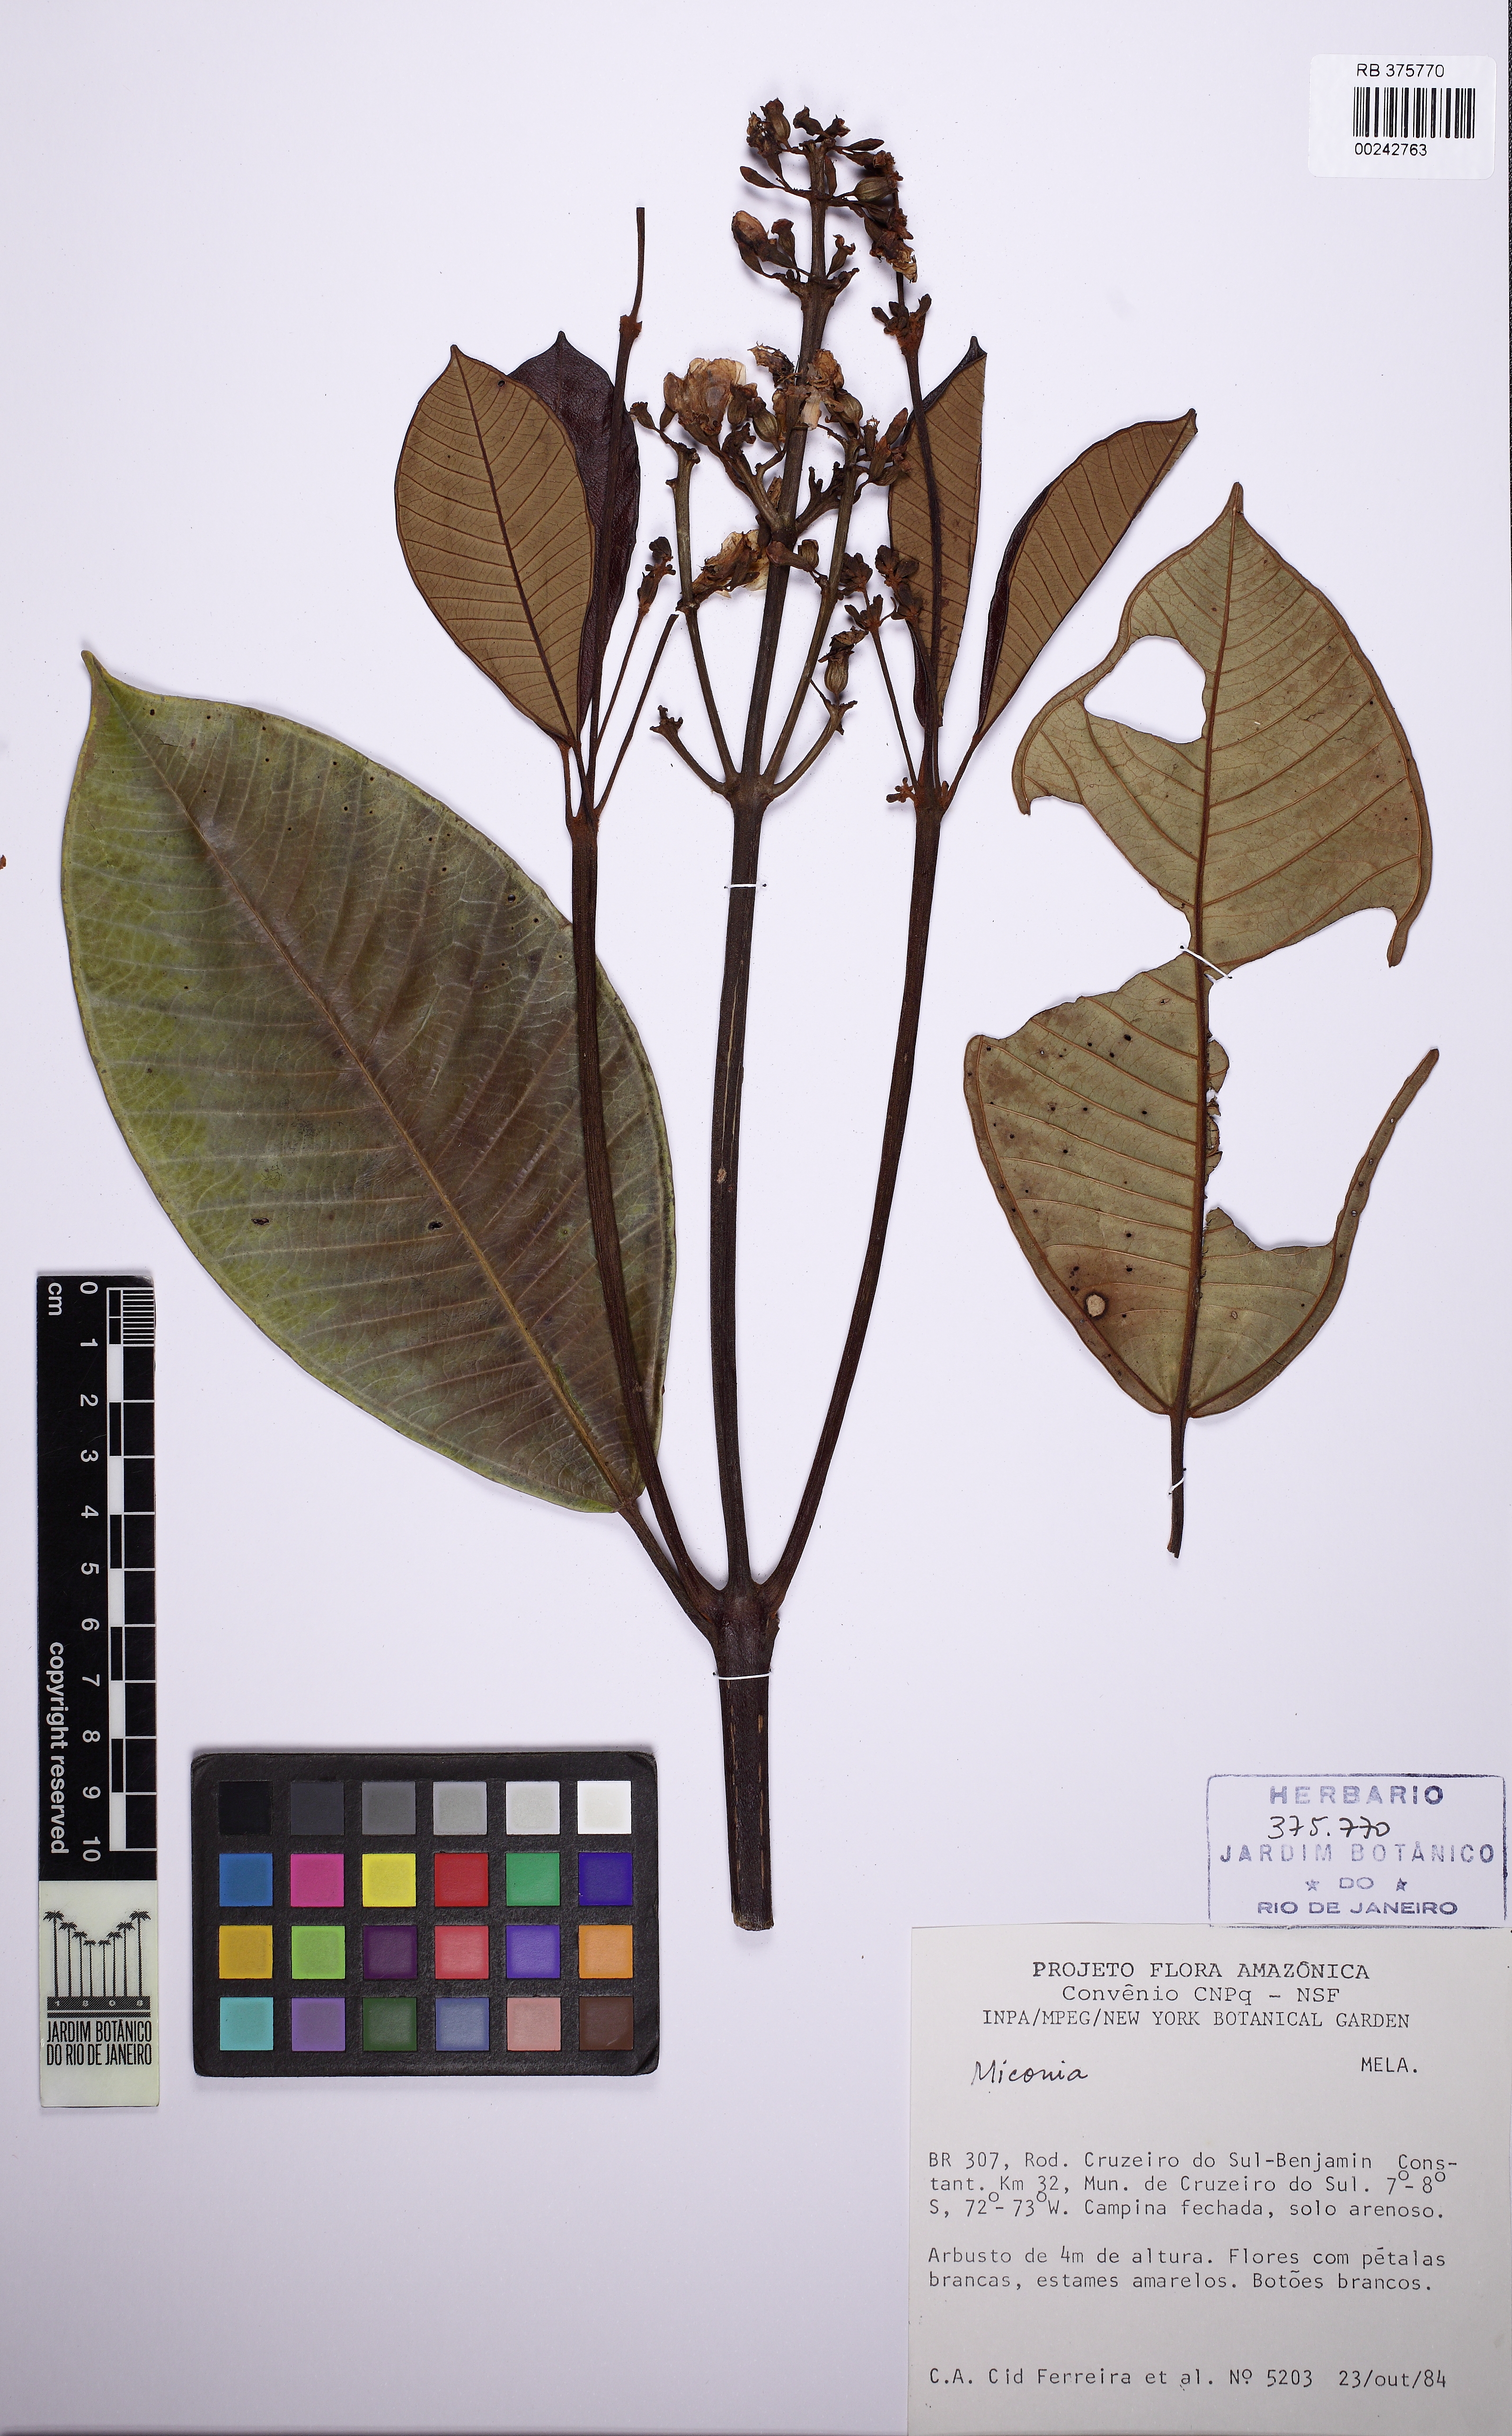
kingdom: Plantae
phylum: Tracheophyta
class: Magnoliopsida
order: Myrtales
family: Melastomataceae
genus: Graffenrieda
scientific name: Graffenrieda limbata
